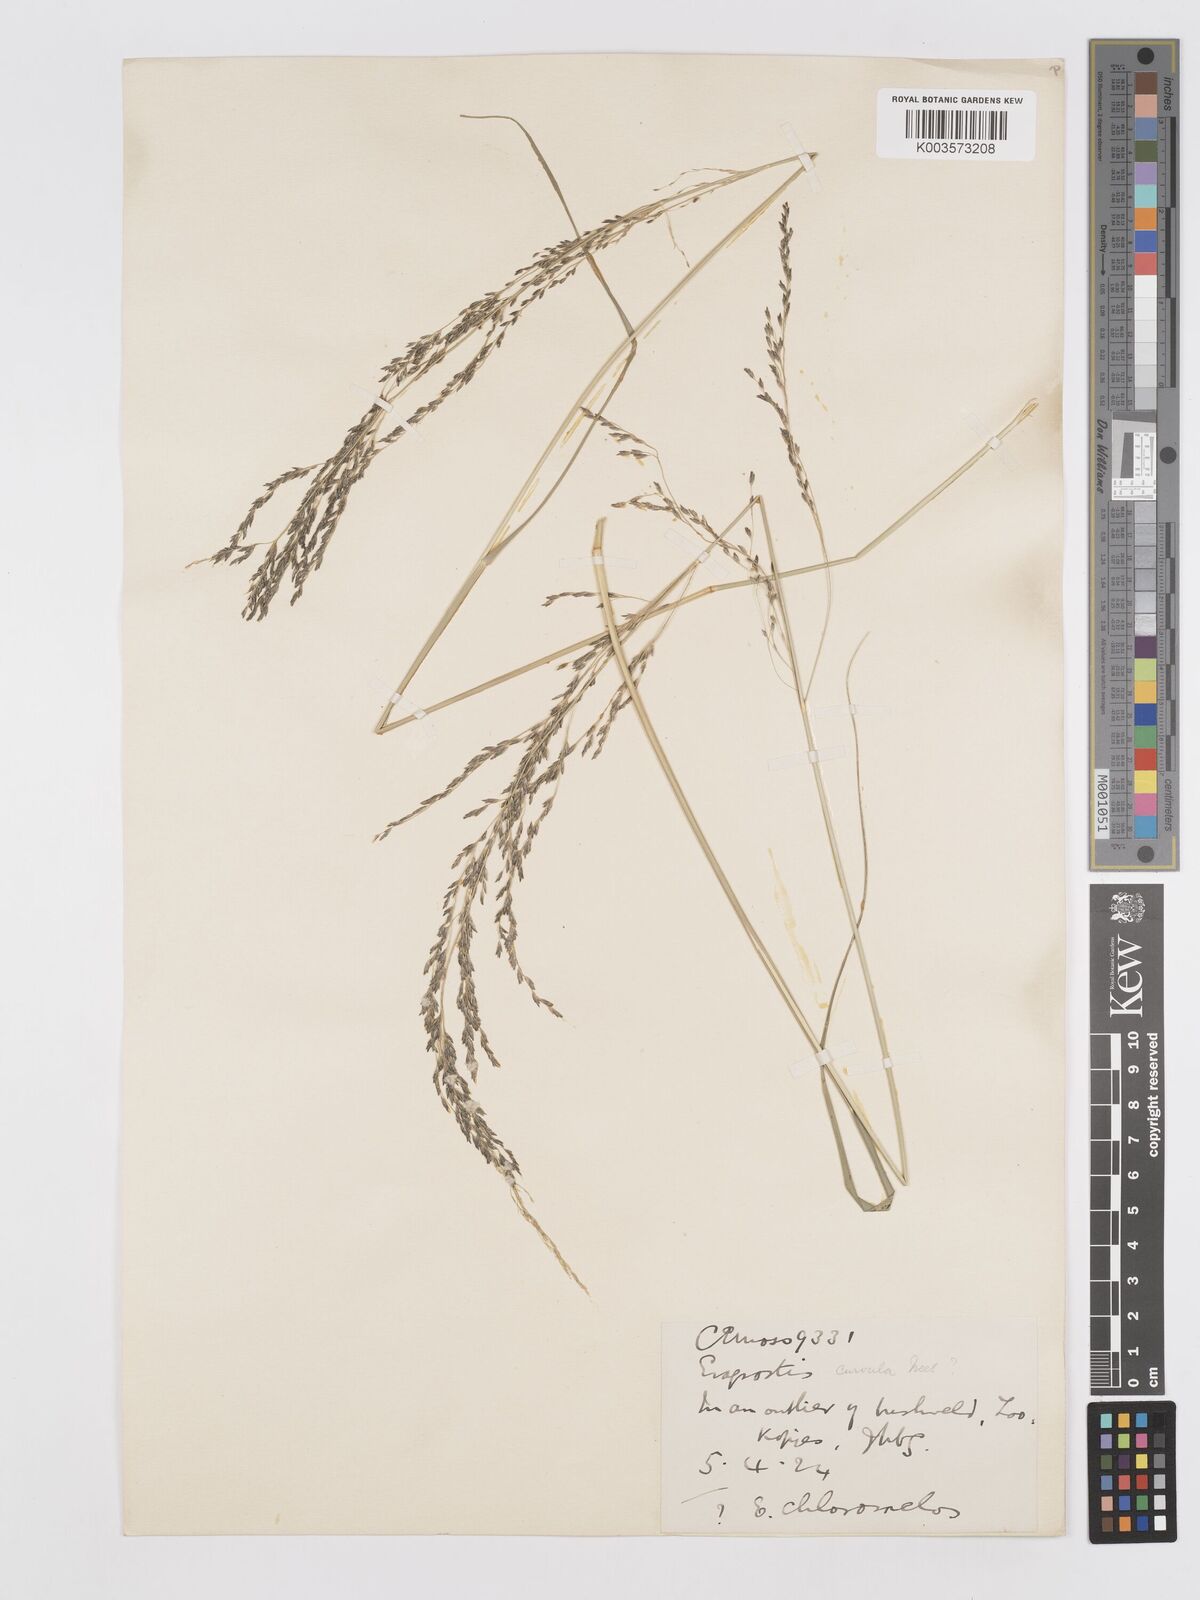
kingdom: Plantae
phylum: Tracheophyta
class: Liliopsida
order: Poales
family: Poaceae
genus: Eragrostis
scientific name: Eragrostis curvula
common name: African love-grass
